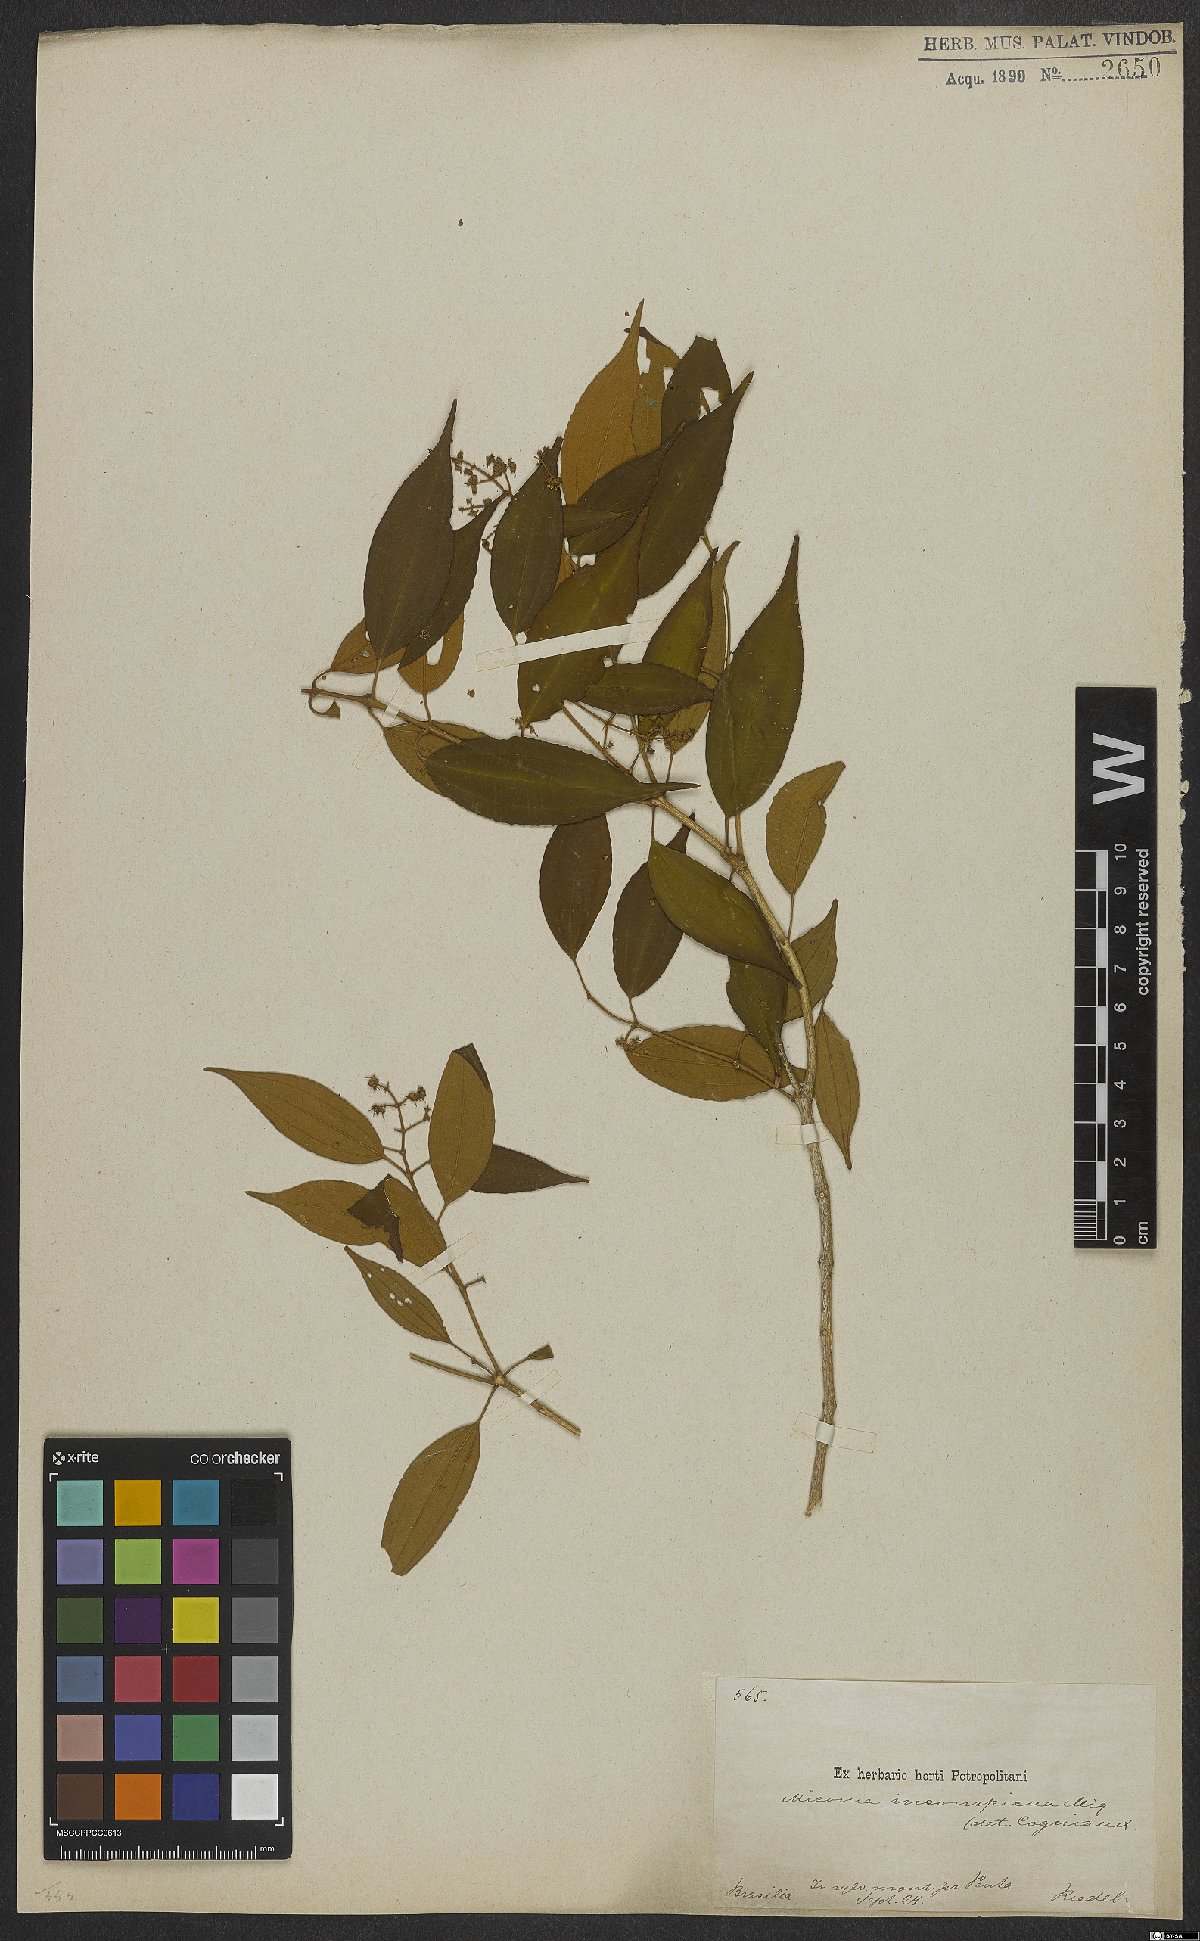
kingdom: Plantae
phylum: Tracheophyta
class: Magnoliopsida
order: Myrtales
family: Melastomataceae
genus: Miconia
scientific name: Miconia inconspicua
